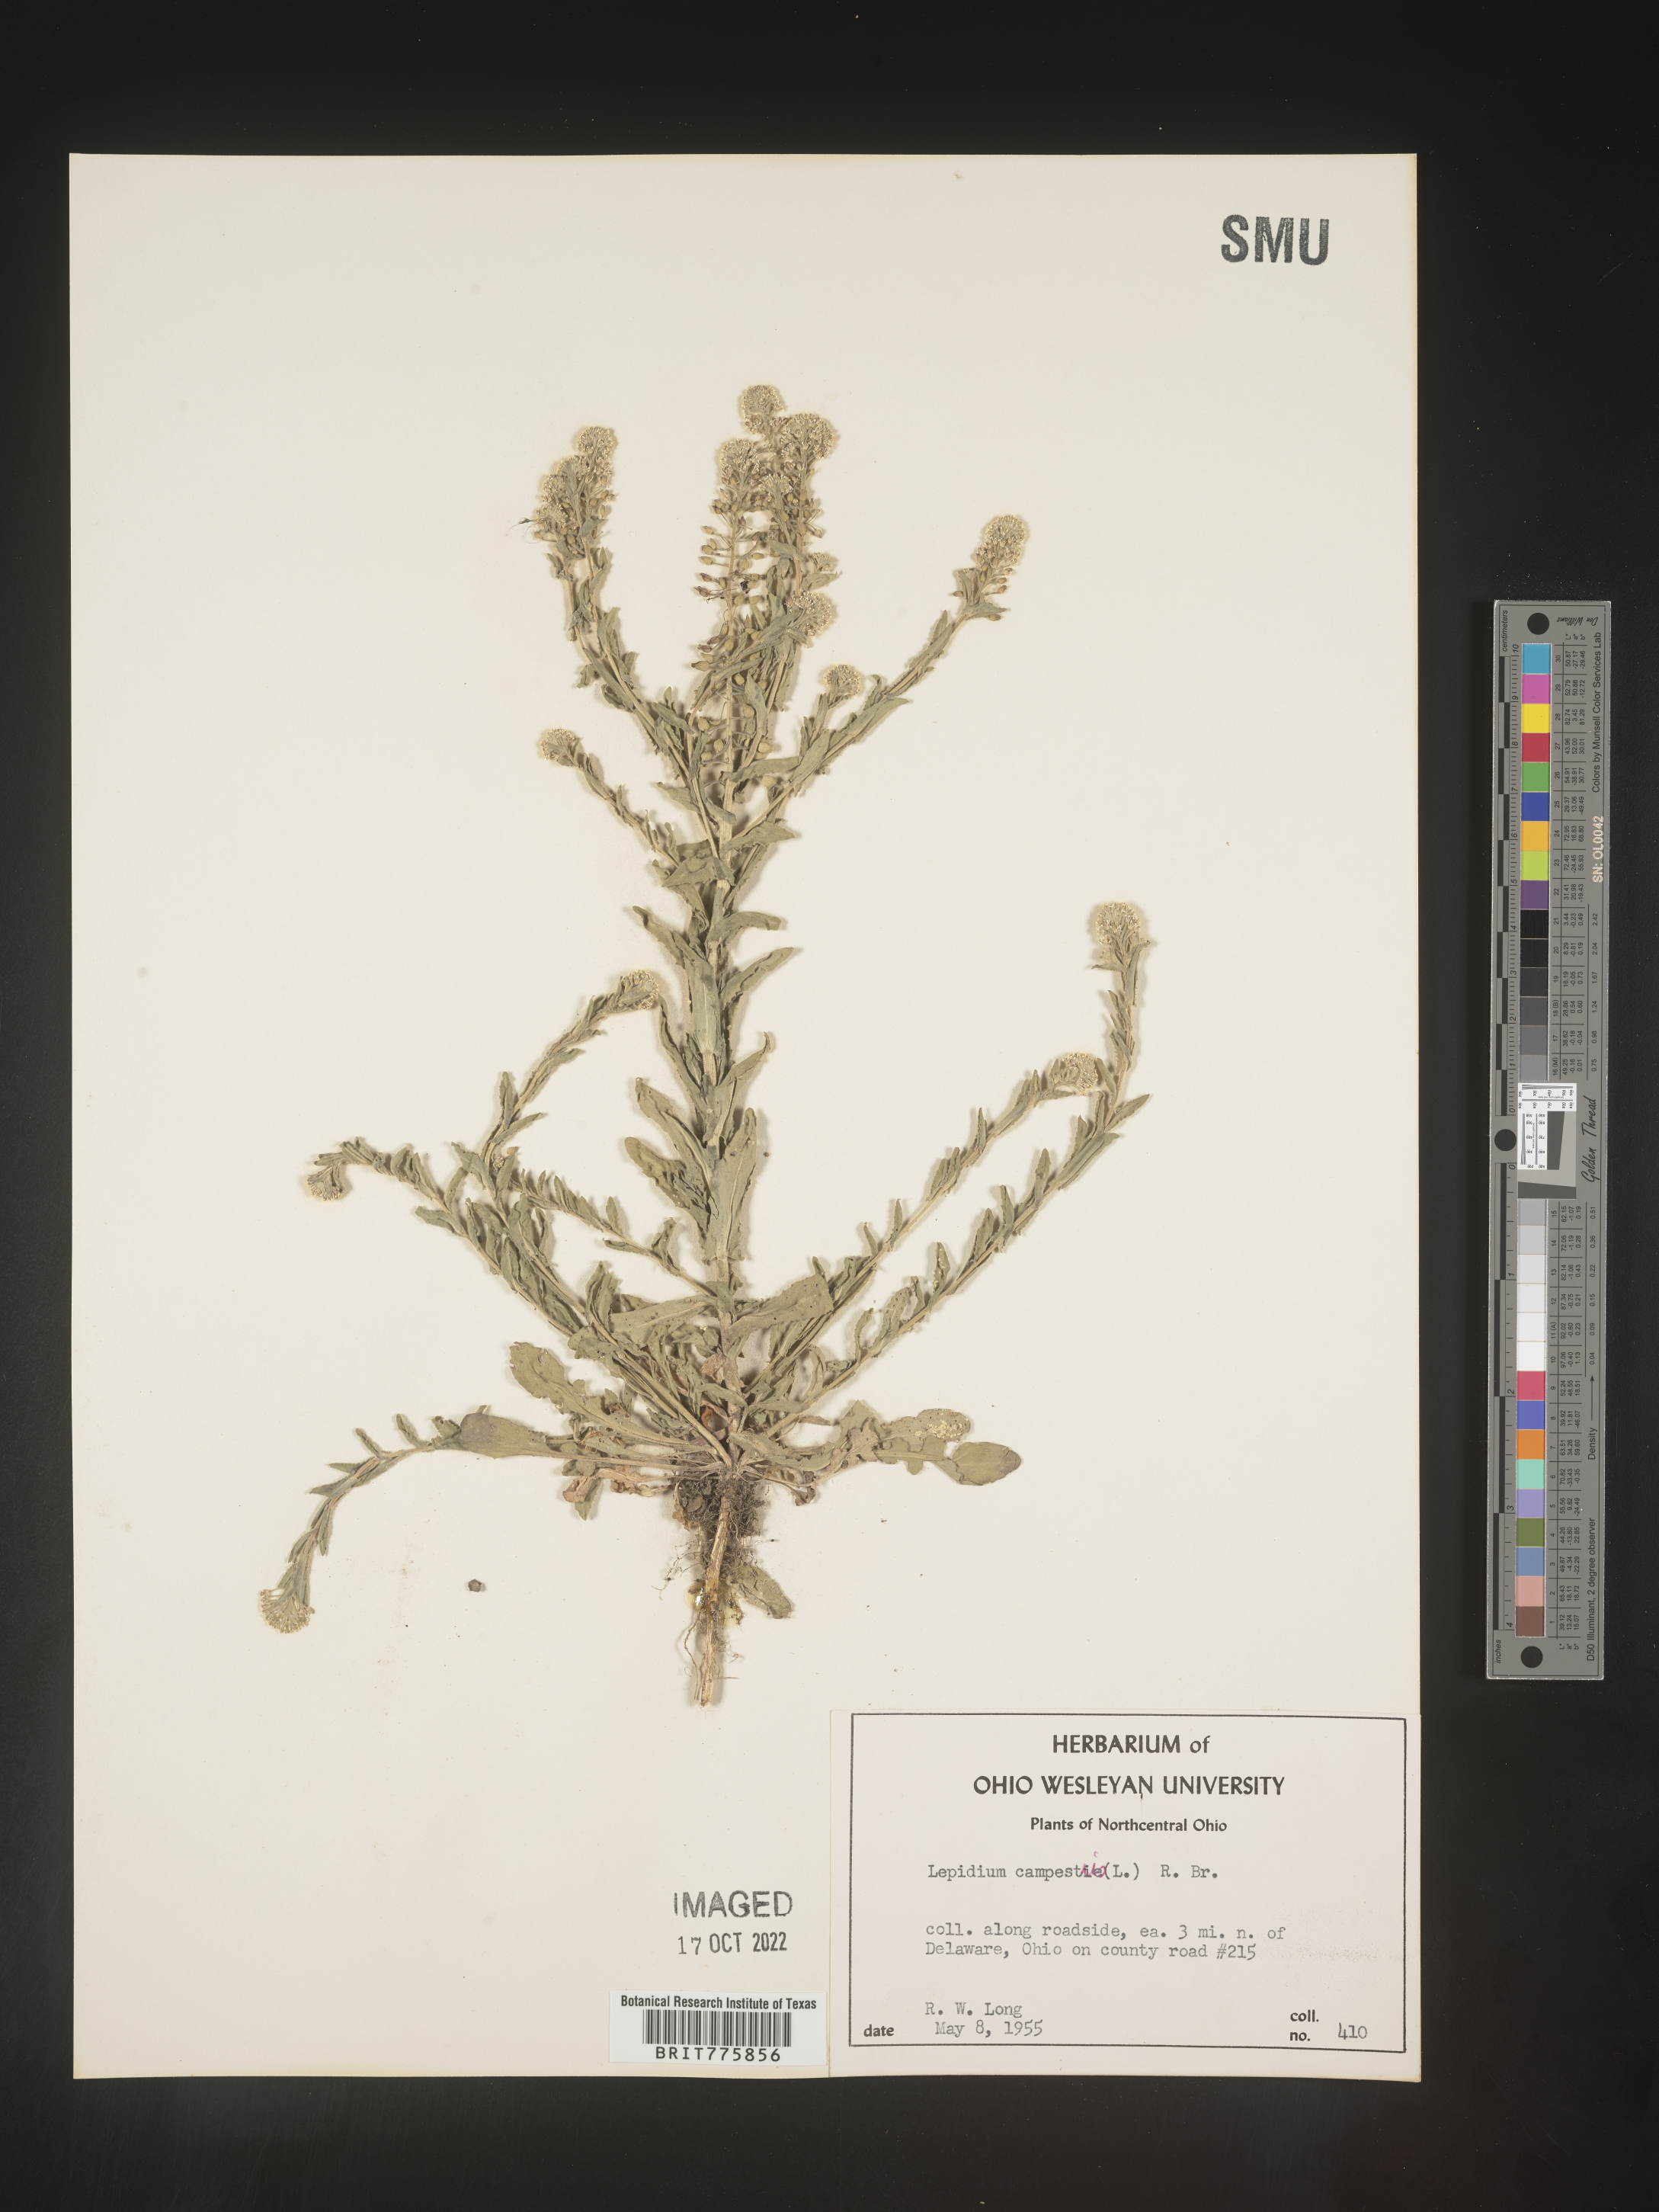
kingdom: Plantae
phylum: Tracheophyta
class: Magnoliopsida
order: Brassicales
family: Brassicaceae
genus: Lepidium
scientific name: Lepidium campestre
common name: Field pepperwort
